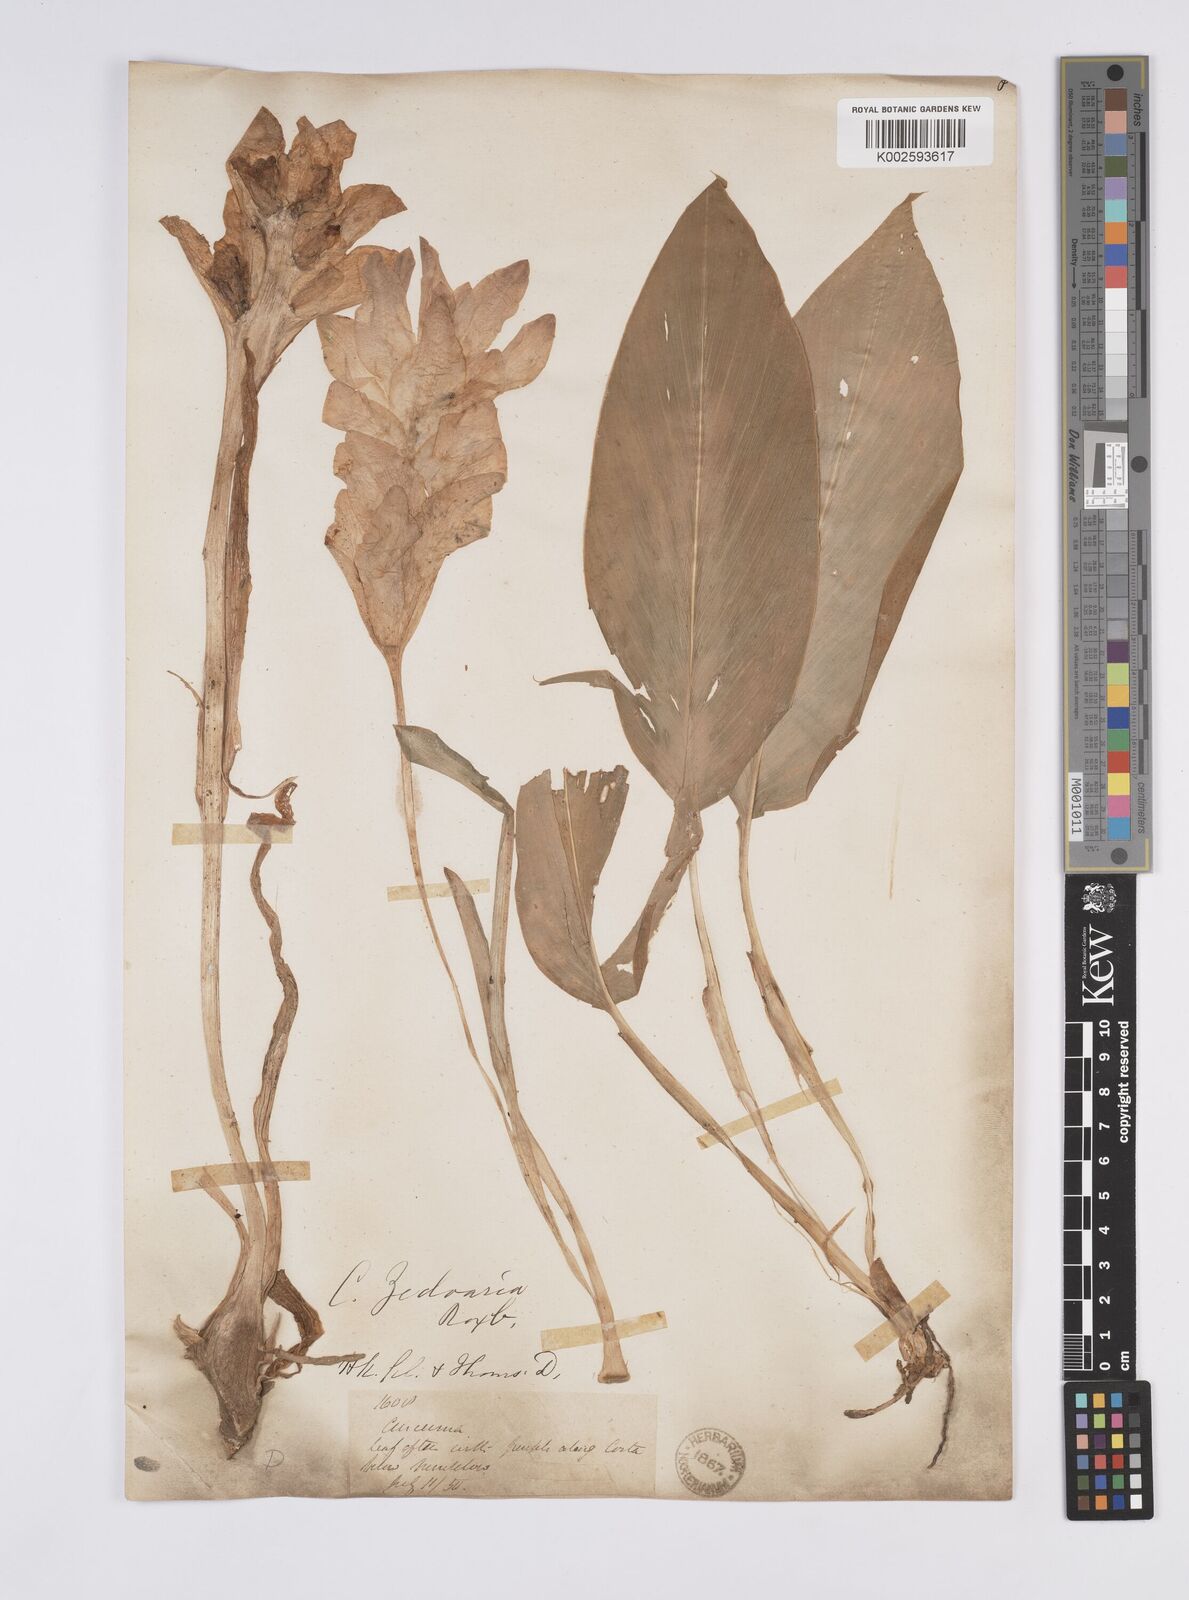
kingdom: Plantae
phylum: Tracheophyta
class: Liliopsida
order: Zingiberales
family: Zingiberaceae
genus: Curcuma
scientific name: Curcuma
